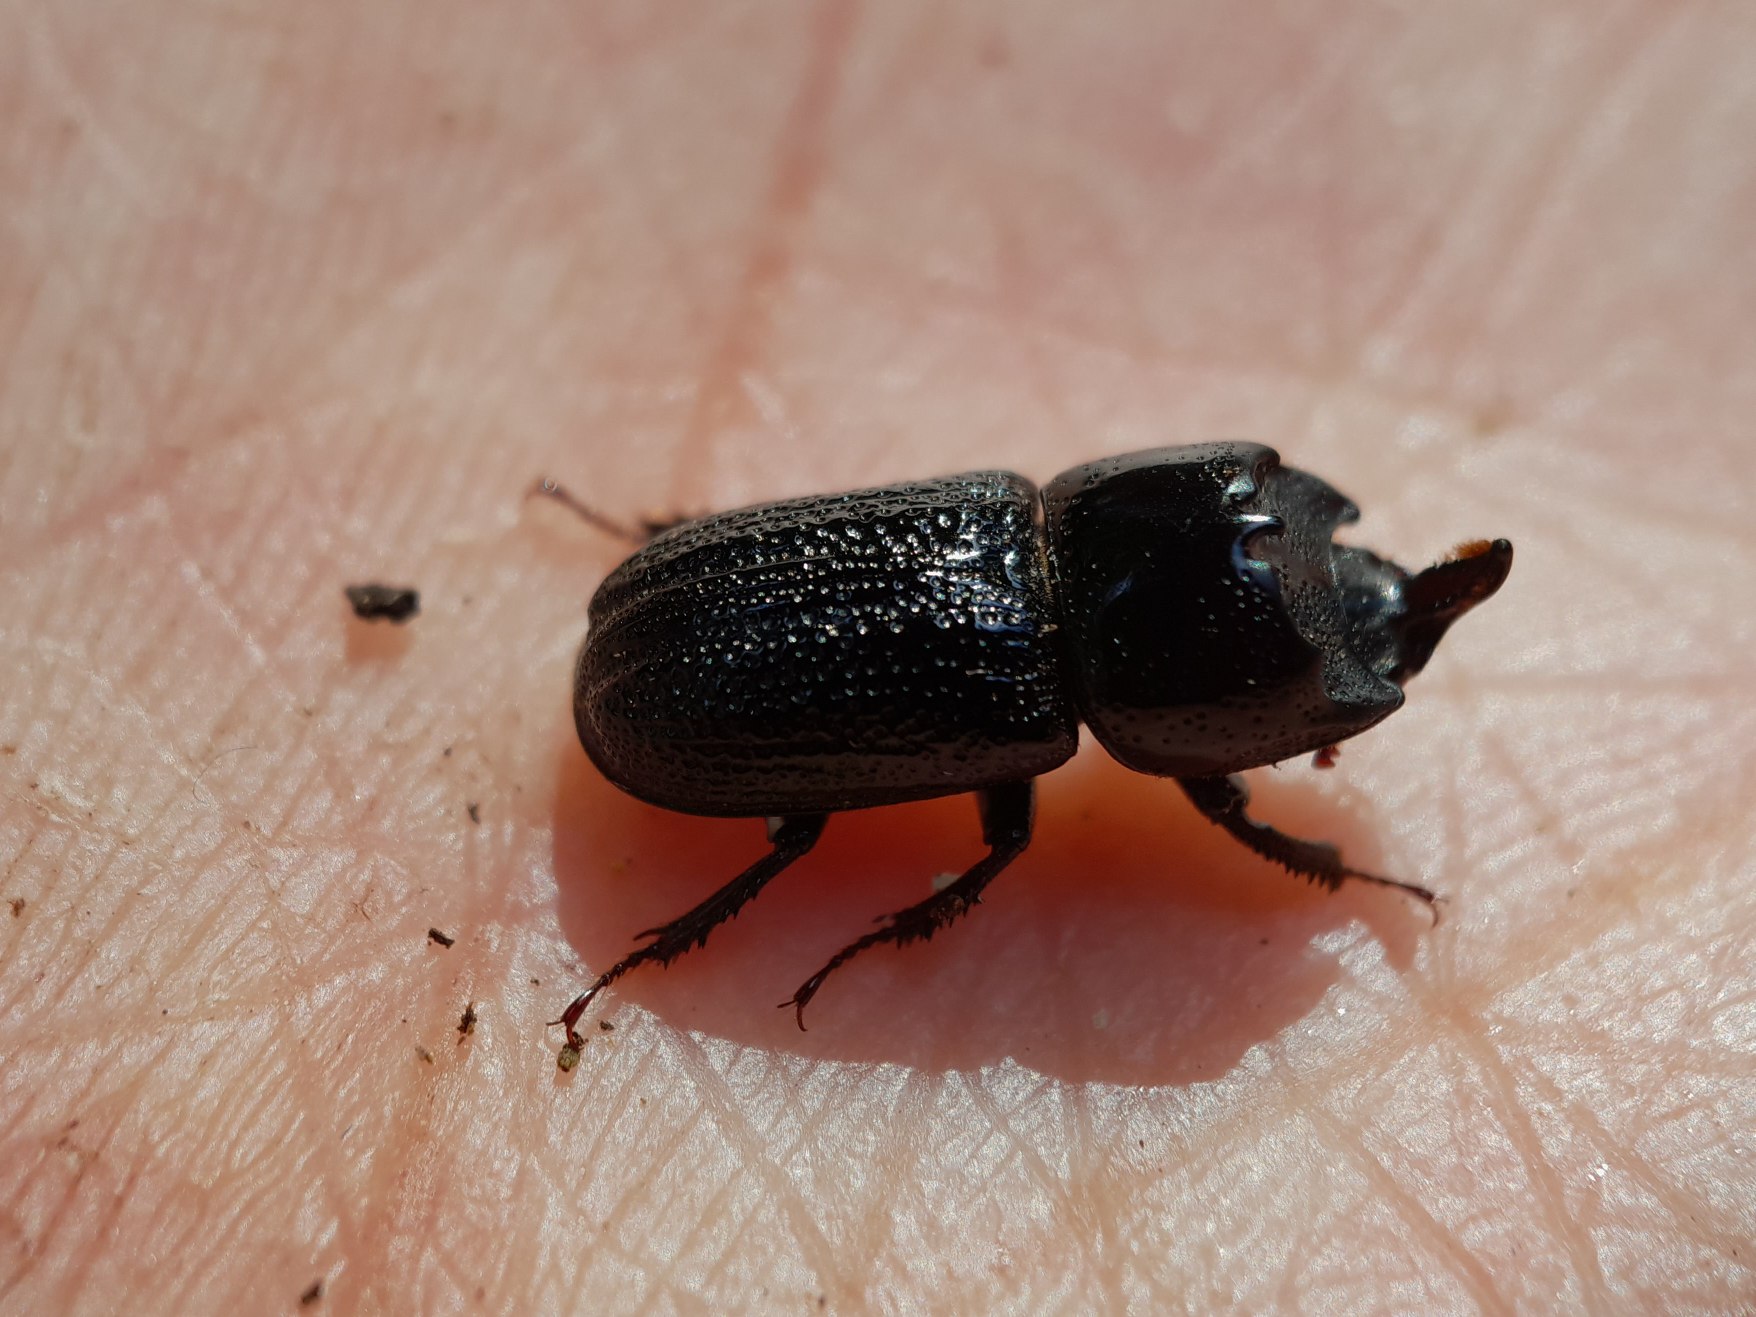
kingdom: Animalia
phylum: Arthropoda
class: Insecta
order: Coleoptera
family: Lucanidae
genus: Sinodendron
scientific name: Sinodendron cylindricum
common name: Valsehjort
